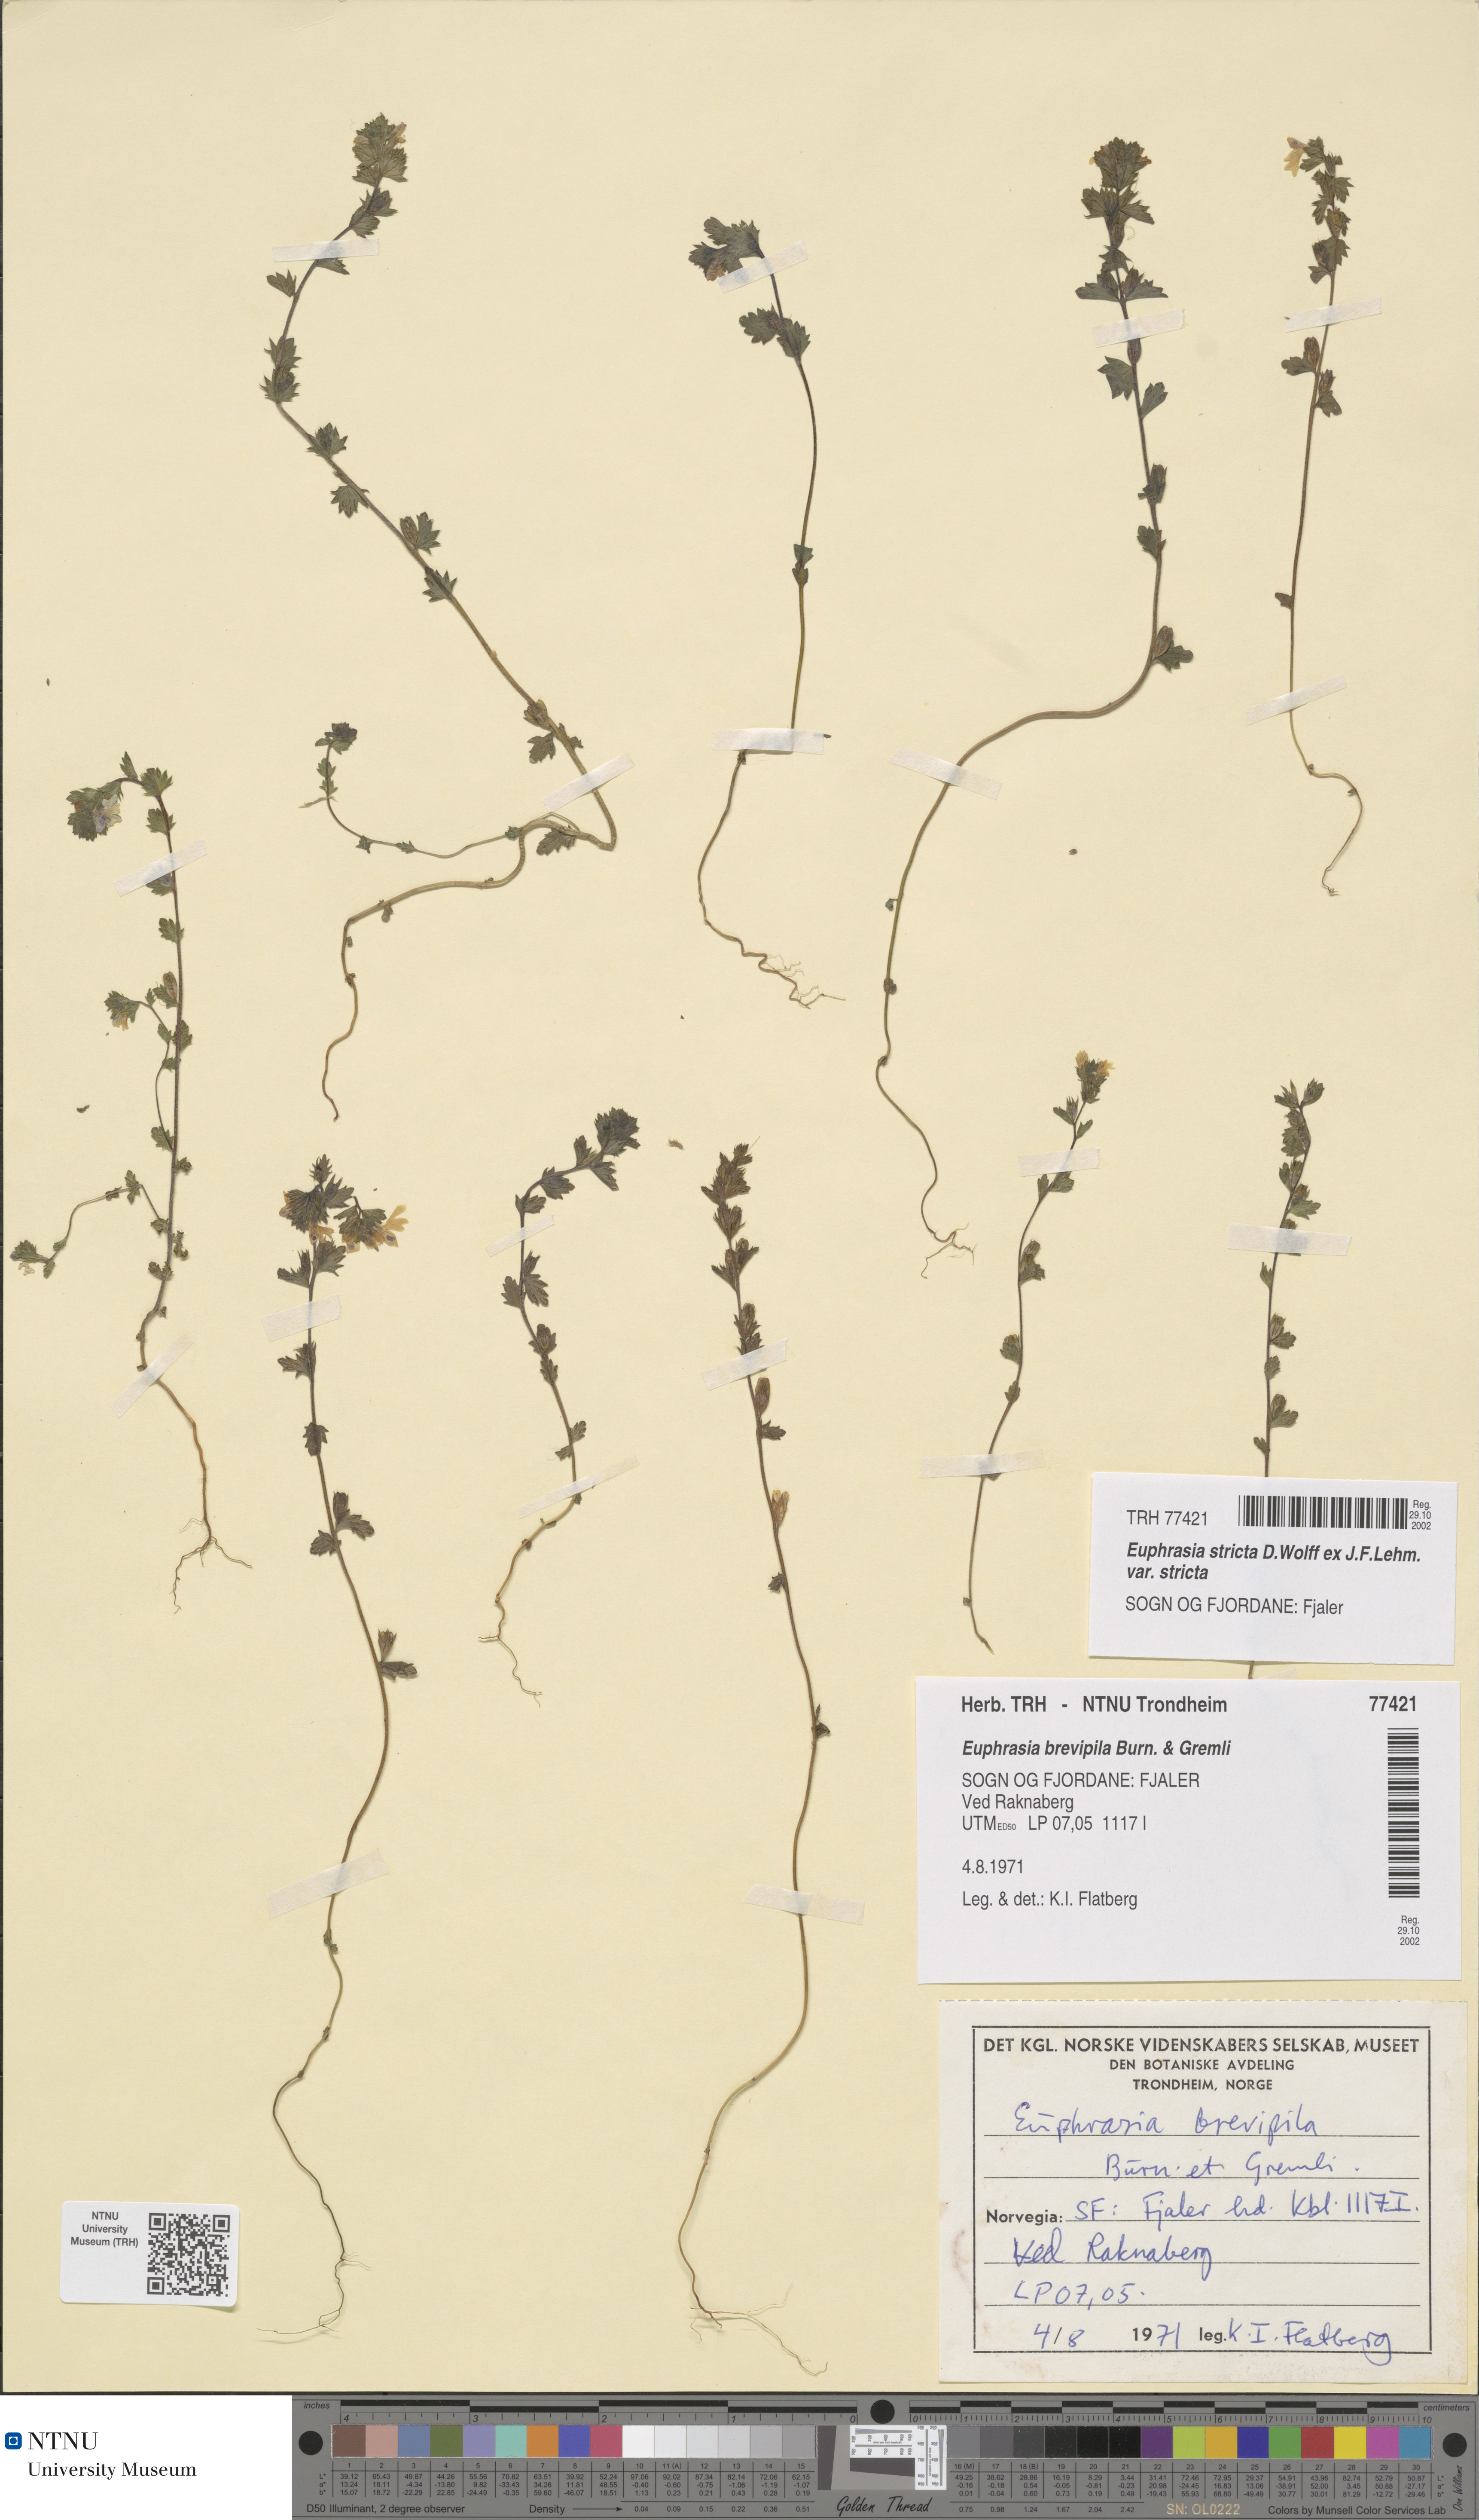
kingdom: Plantae
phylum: Tracheophyta
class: Magnoliopsida
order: Lamiales
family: Orobanchaceae
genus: Euphrasia
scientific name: Euphrasia vernalis
